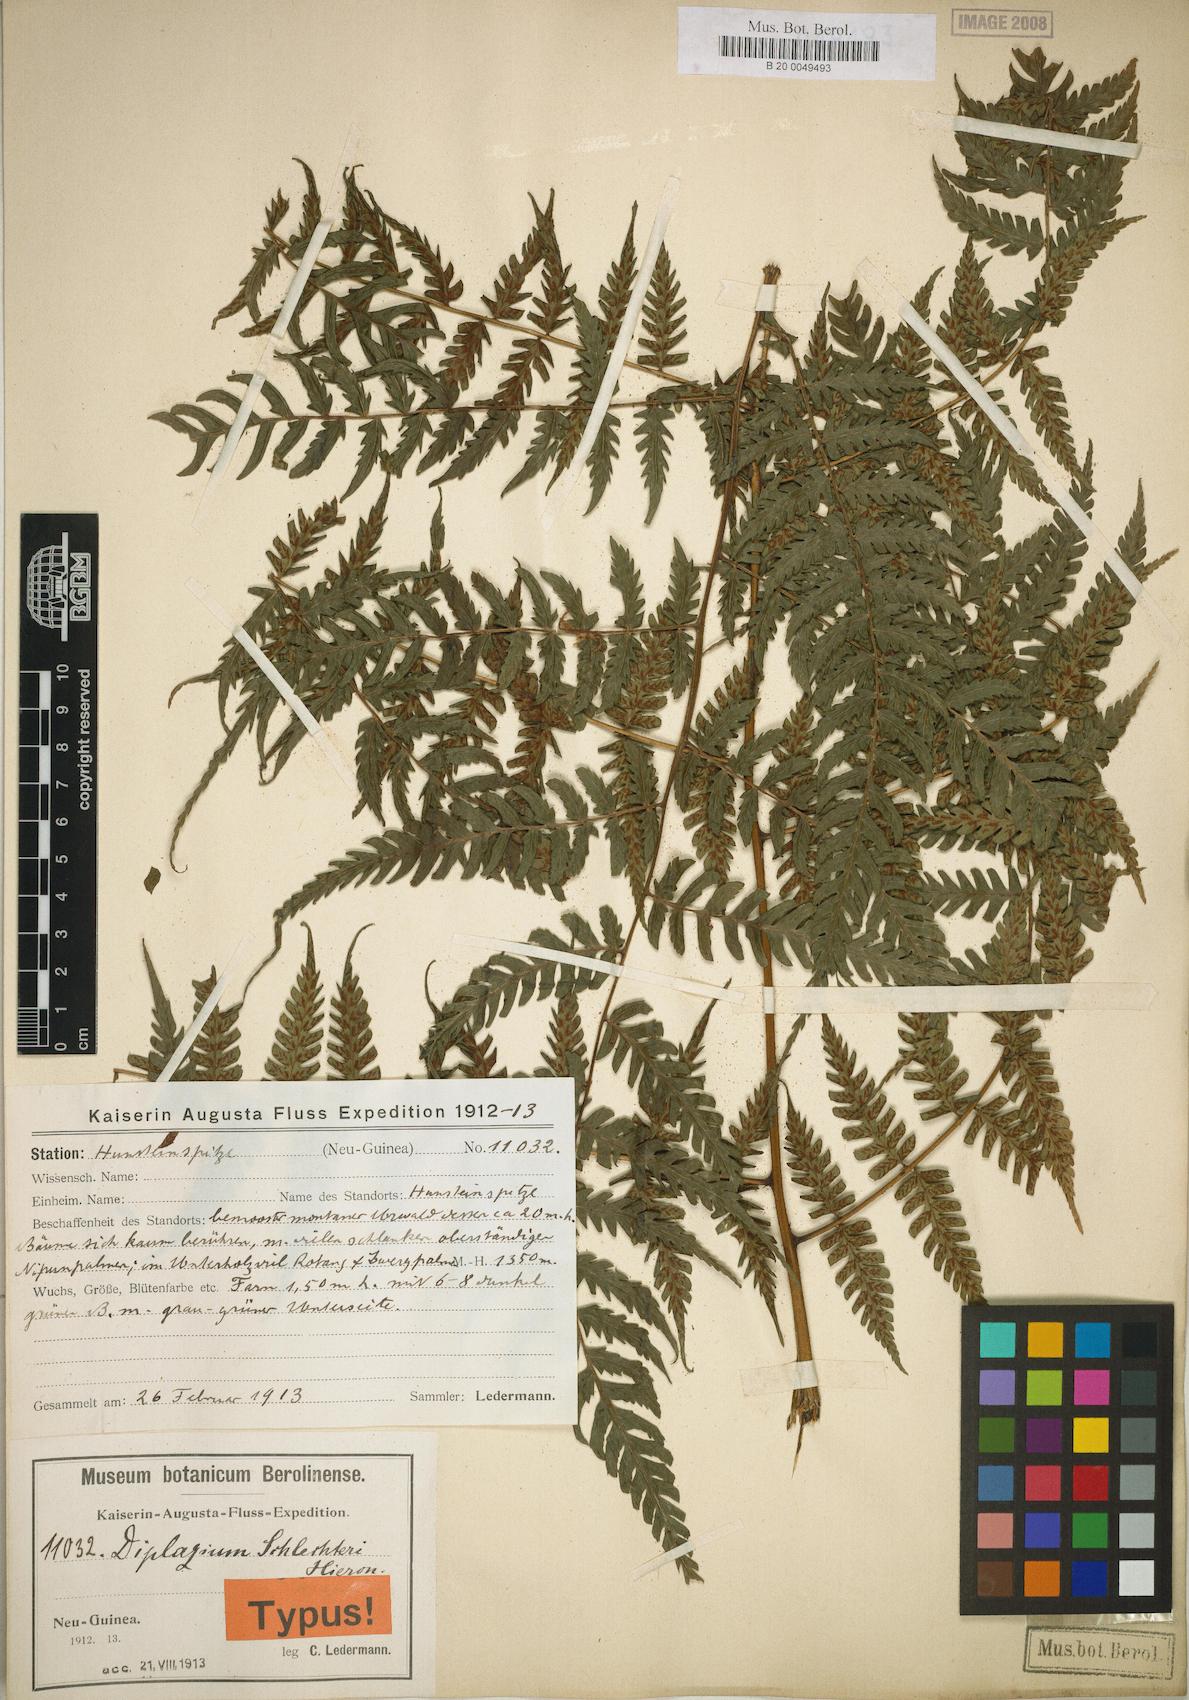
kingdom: Plantae
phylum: Tracheophyta
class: Polypodiopsida
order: Polypodiales
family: Athyriaceae
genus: Diplazium
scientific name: Diplazium schlechteri
